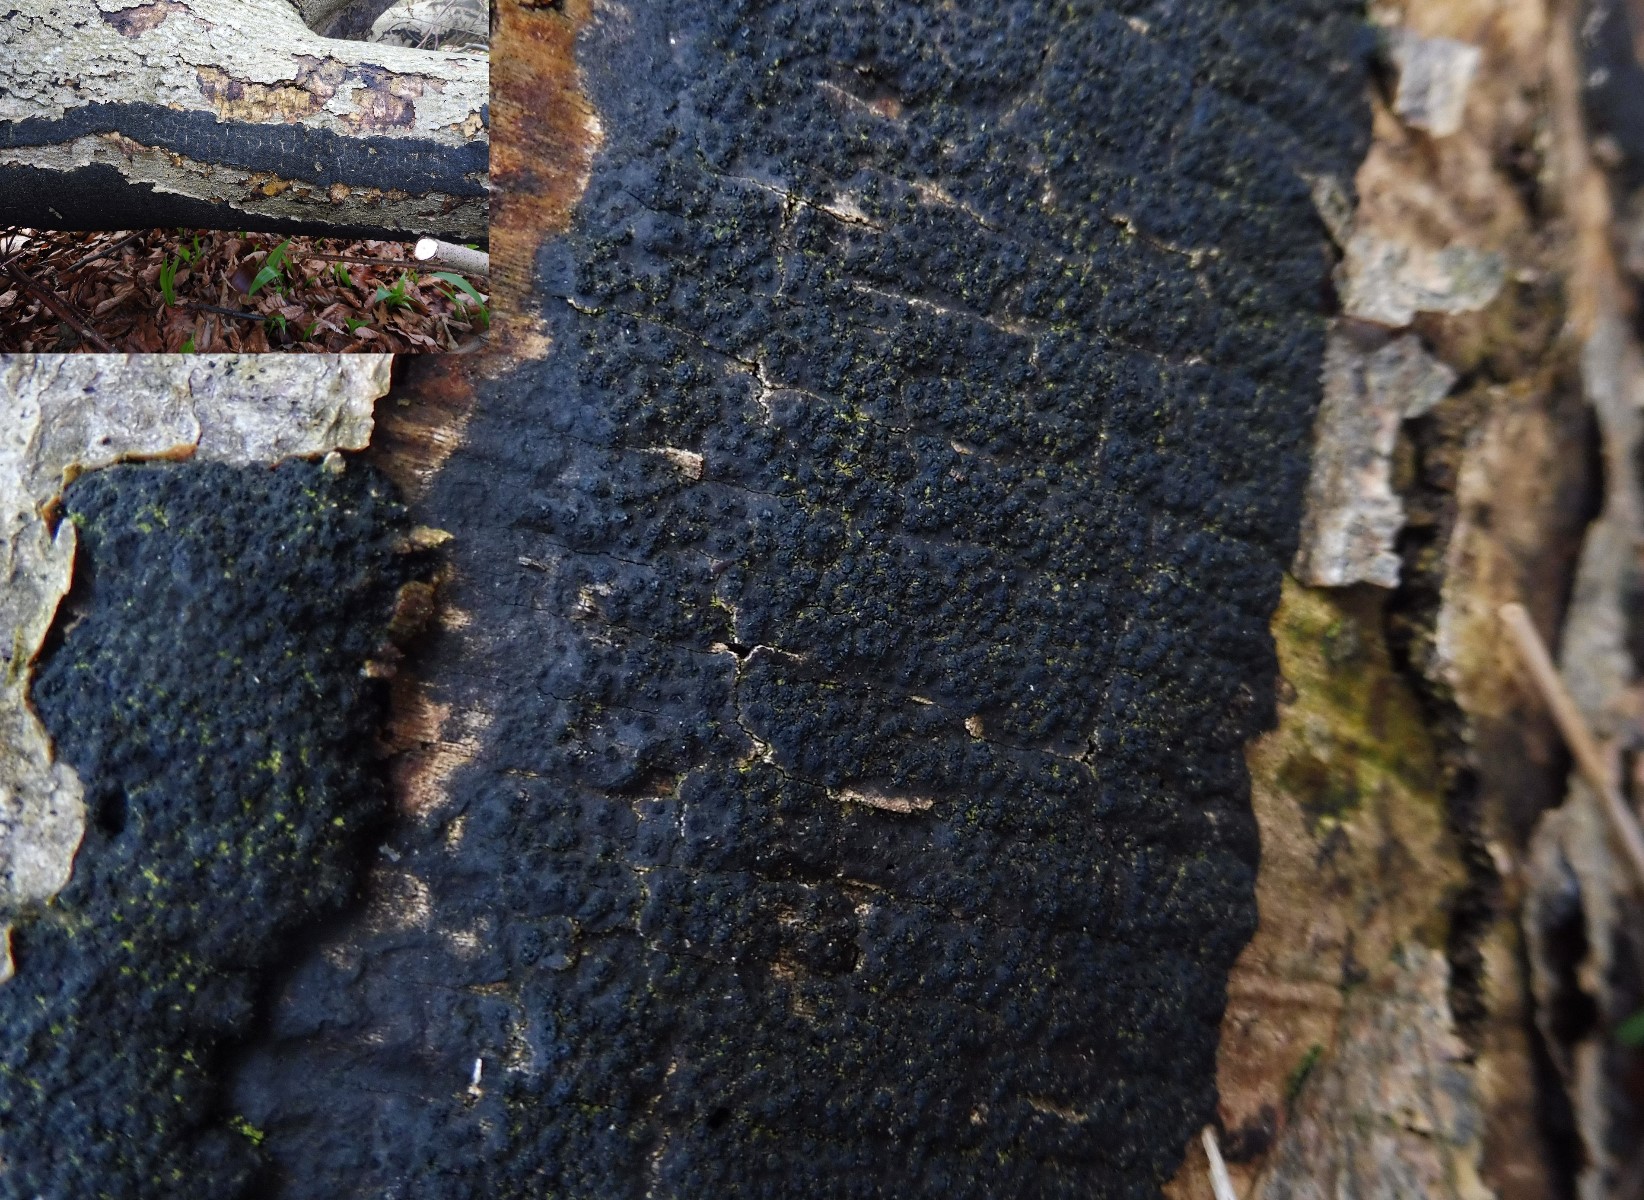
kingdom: Fungi
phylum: Ascomycota
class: Sordariomycetes
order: Xylariales
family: Diatrypaceae
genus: Eutypa
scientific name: Eutypa spinosa
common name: grov kulskorpe
